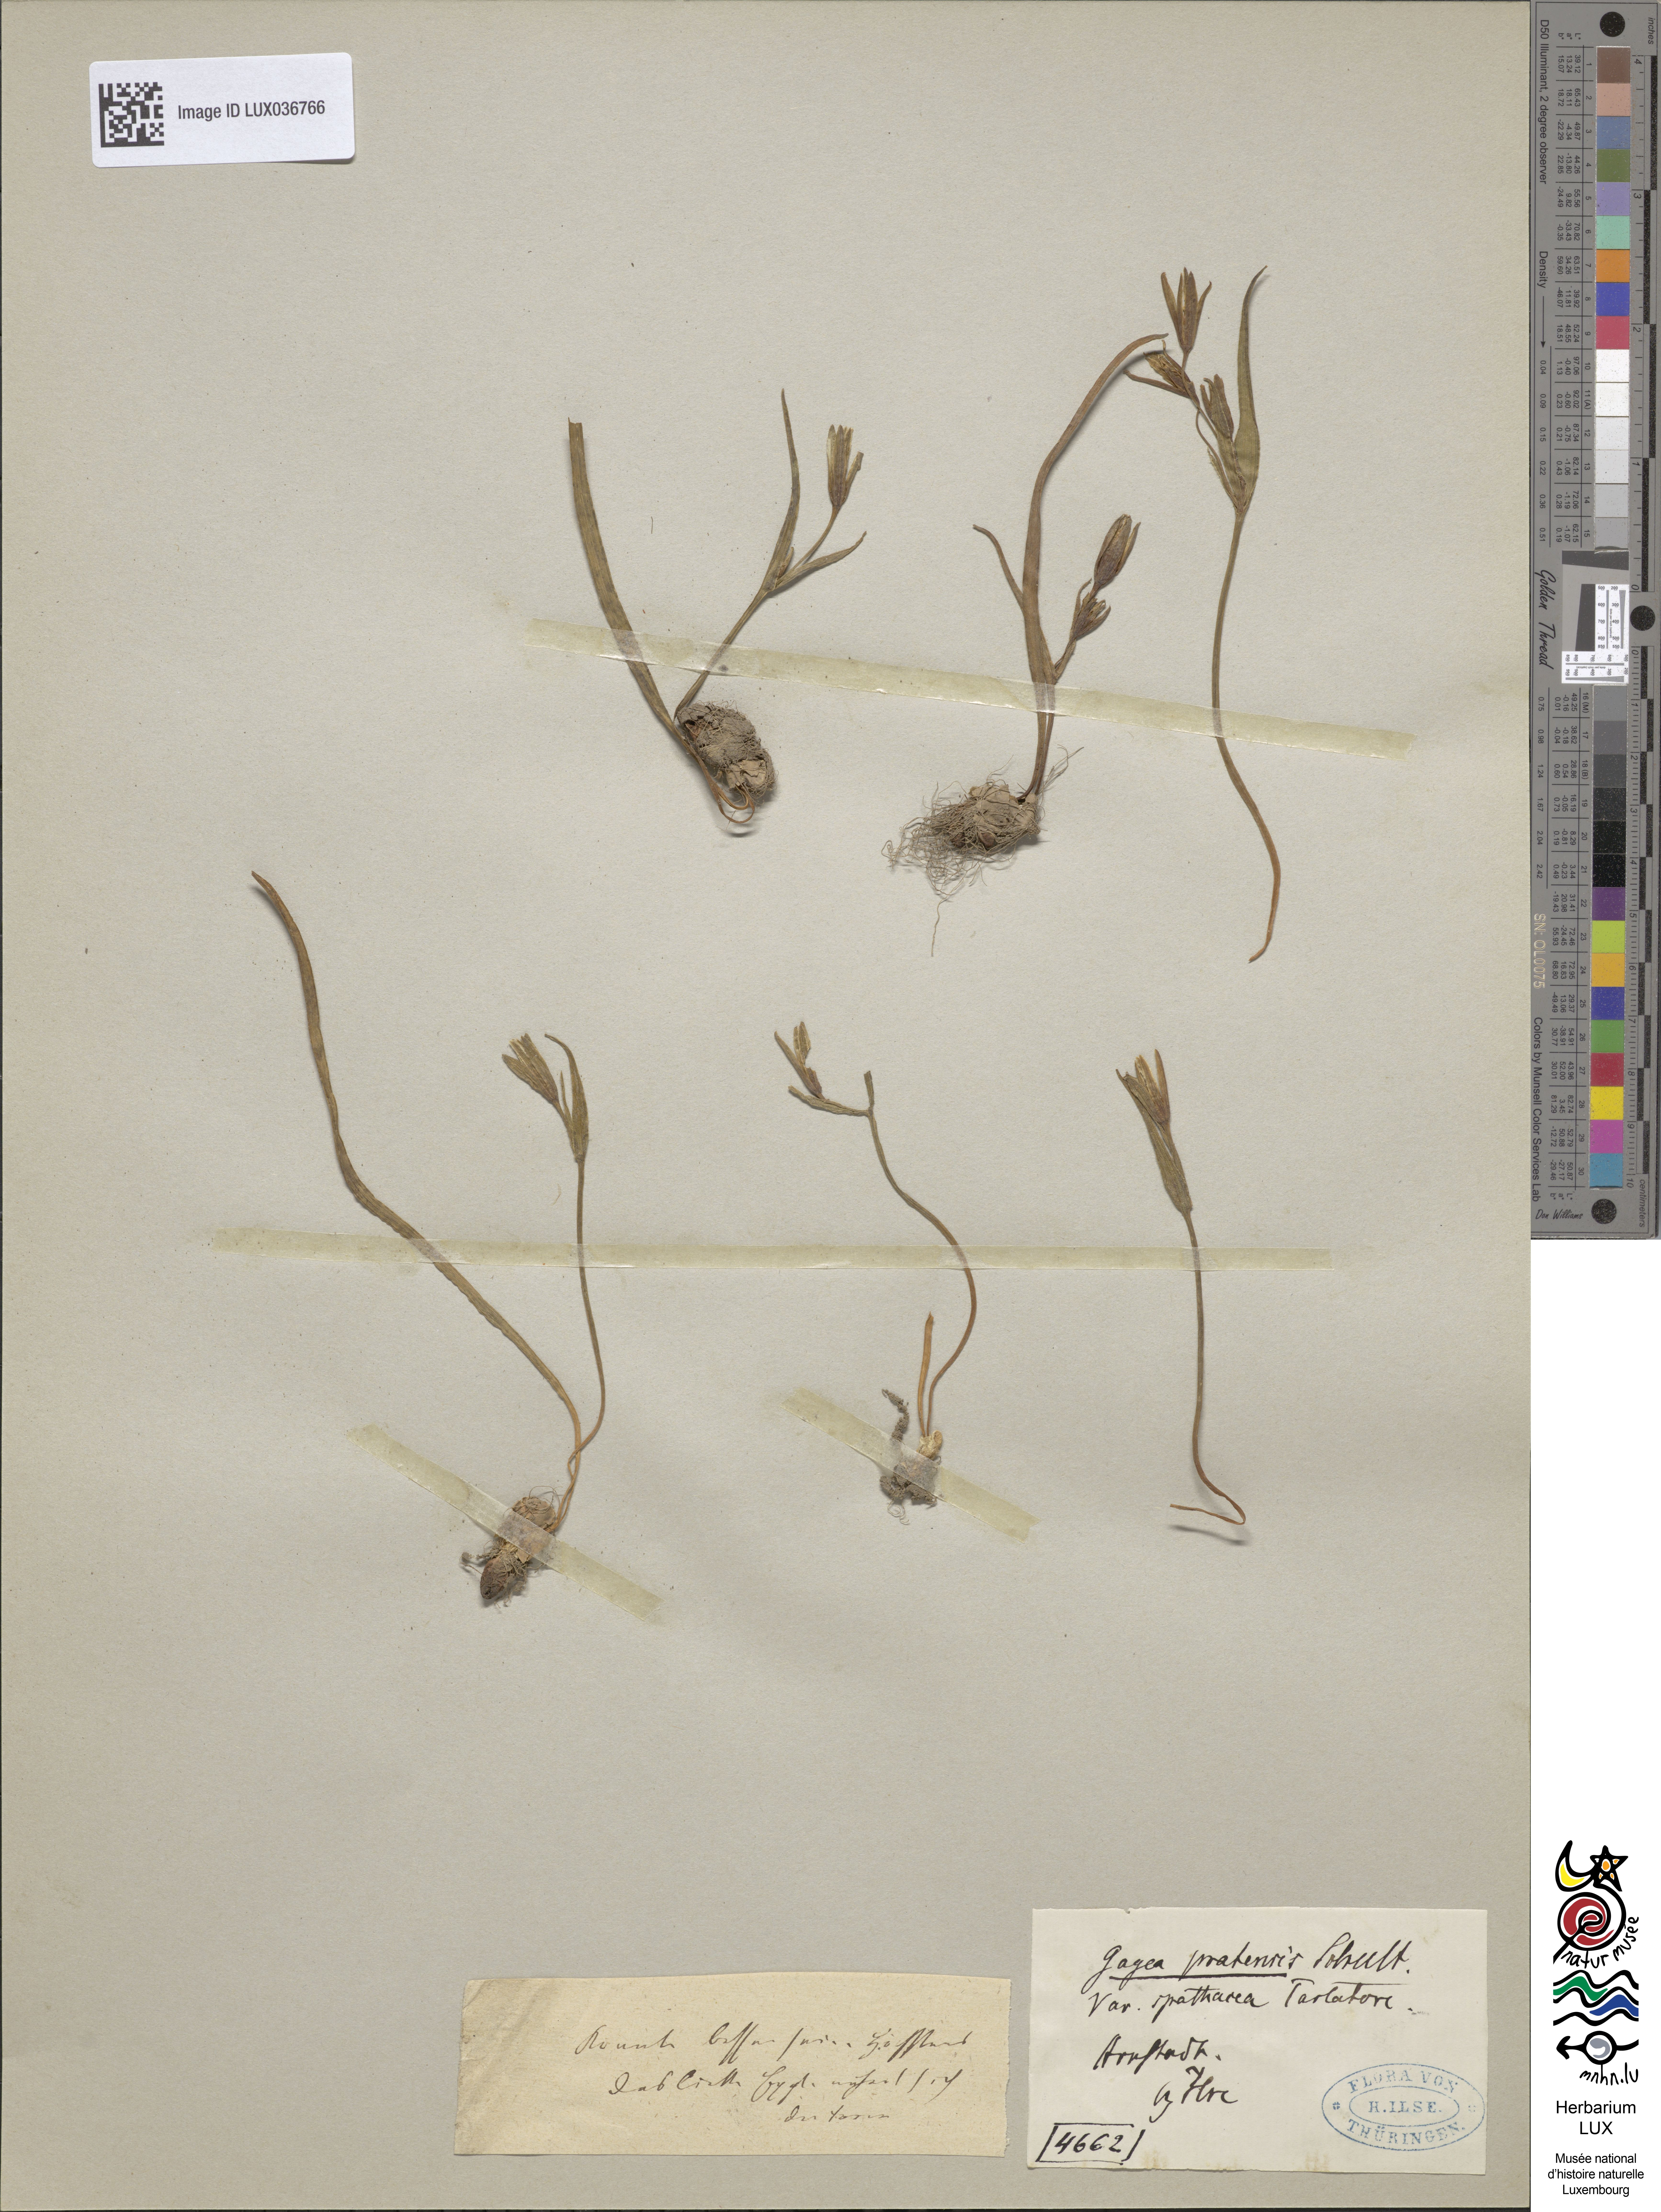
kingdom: Plantae
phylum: Tracheophyta
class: Liliopsida
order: Liliales
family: Liliaceae
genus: Gagea
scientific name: Gagea pomeranica
